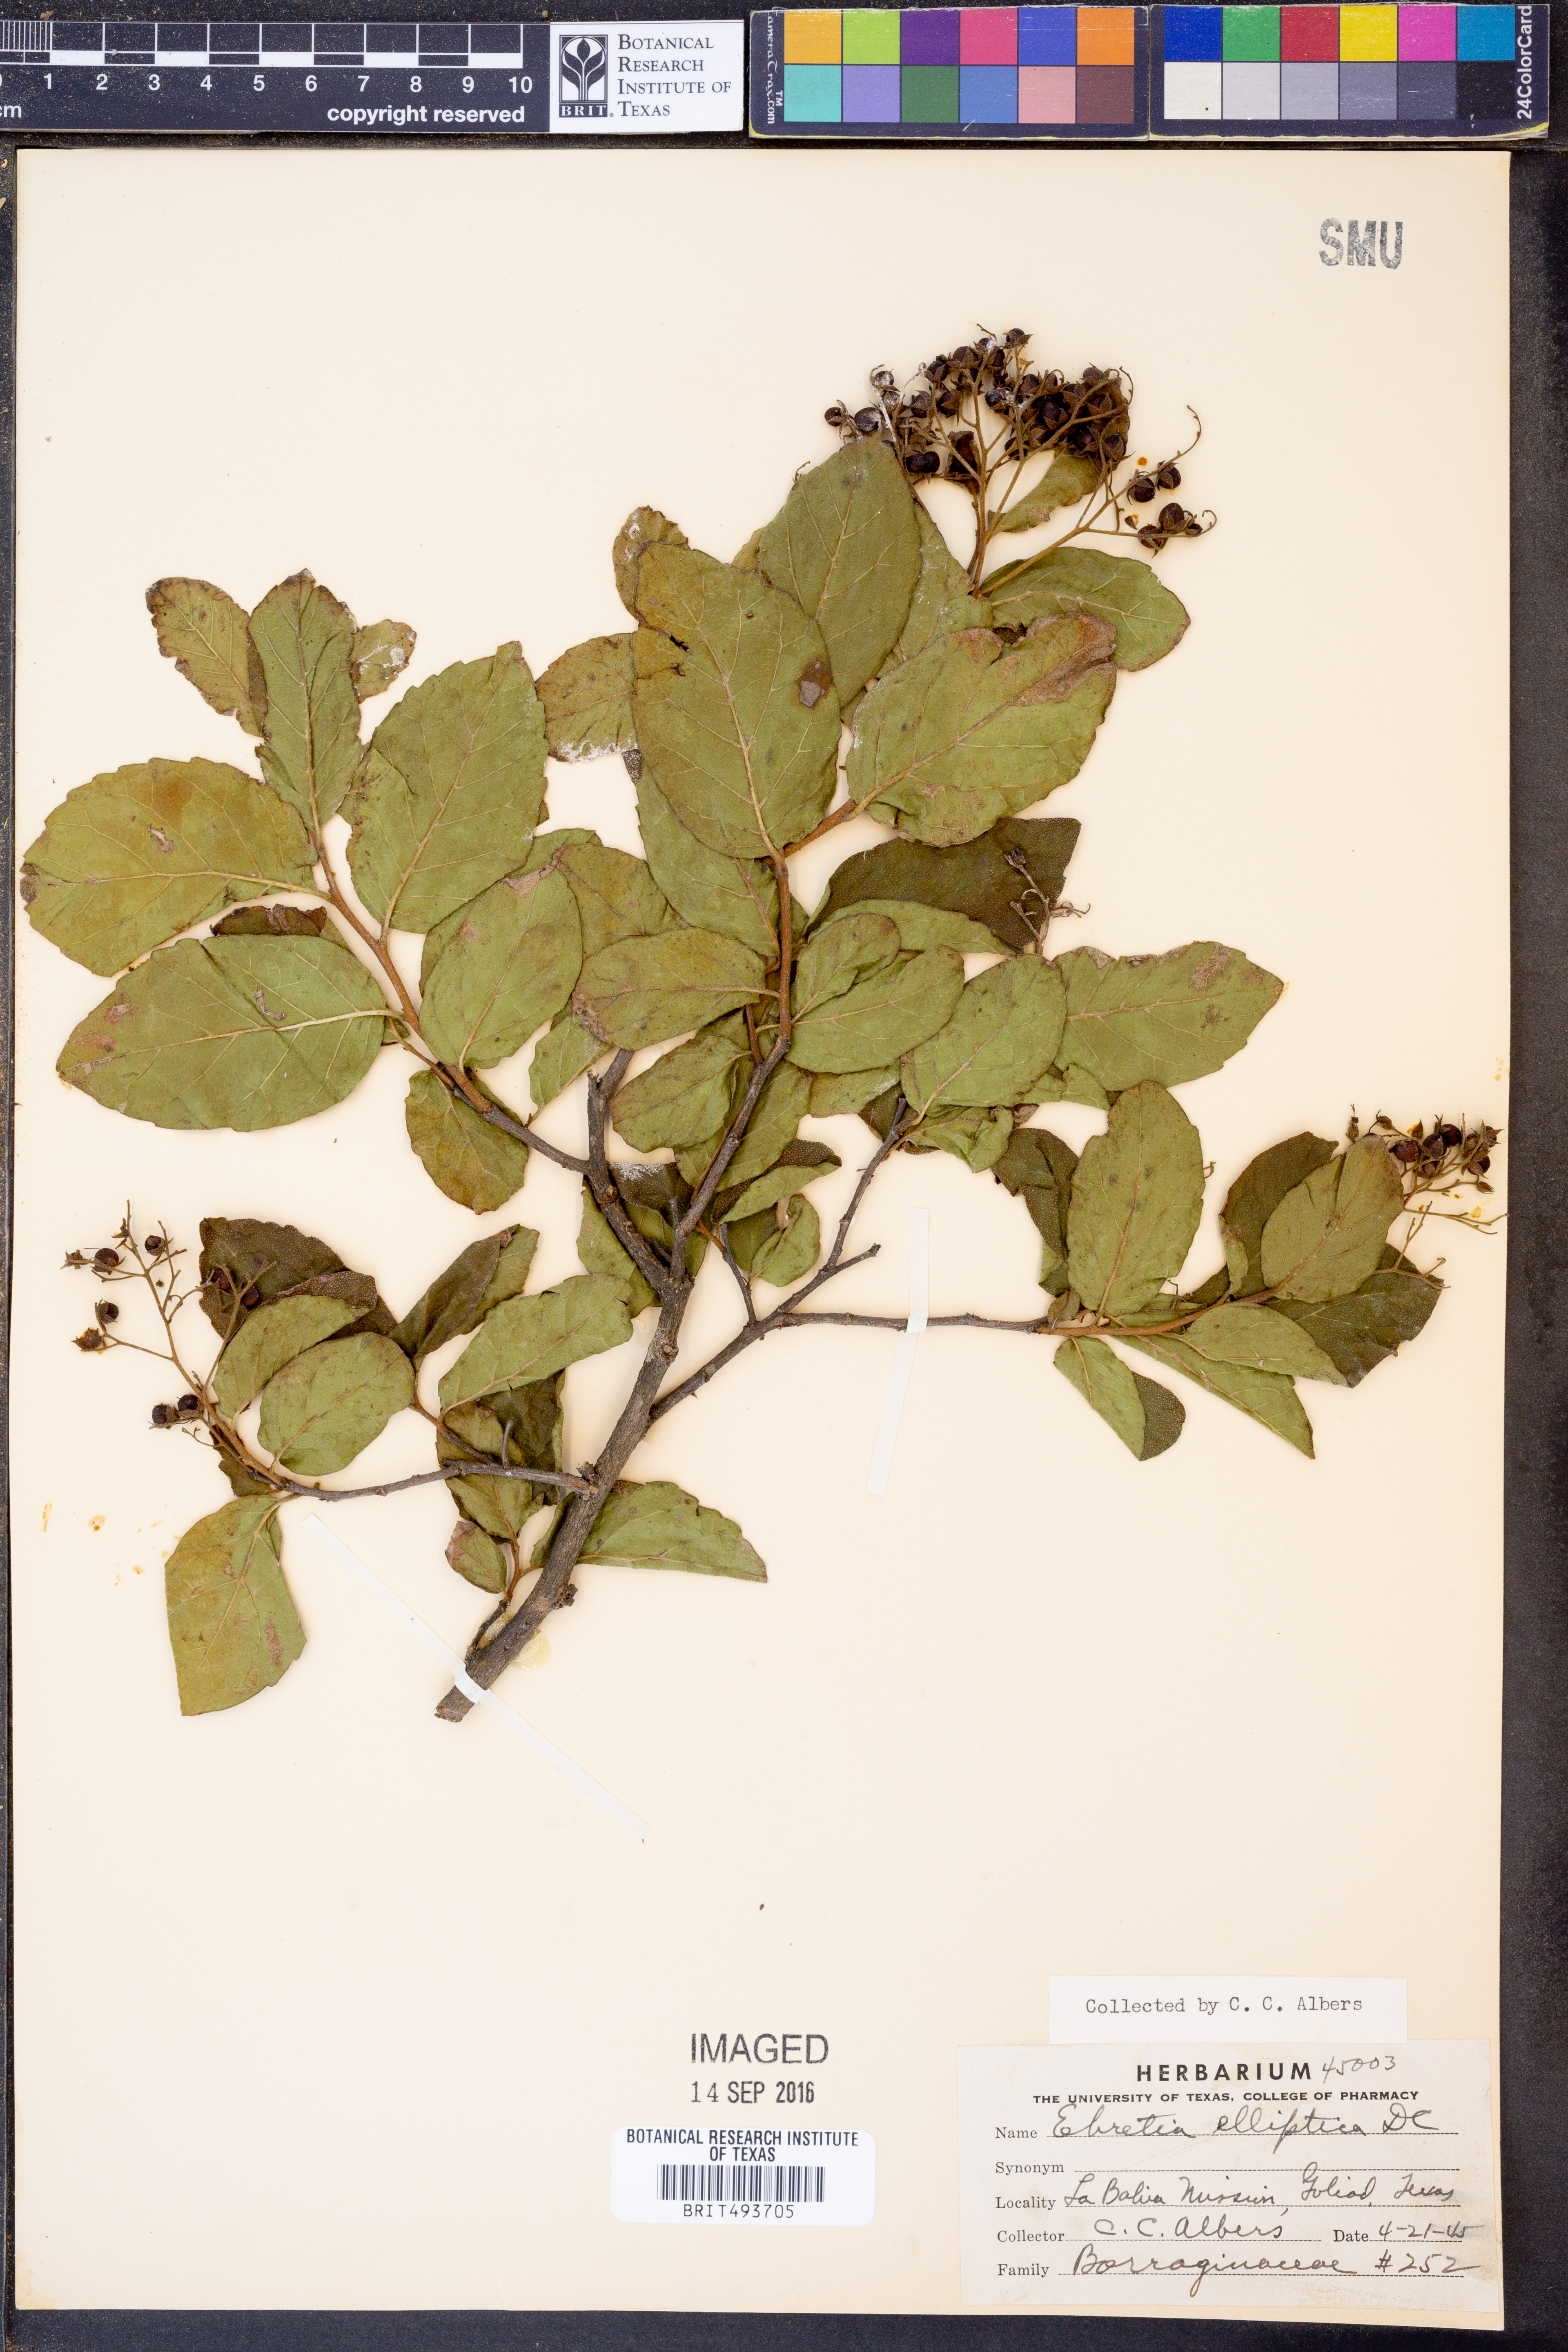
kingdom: Plantae
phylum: Tracheophyta
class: Magnoliopsida
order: Boraginales
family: Ehretiaceae
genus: Ehretia
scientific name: Ehretia anacua
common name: Sugarberry
